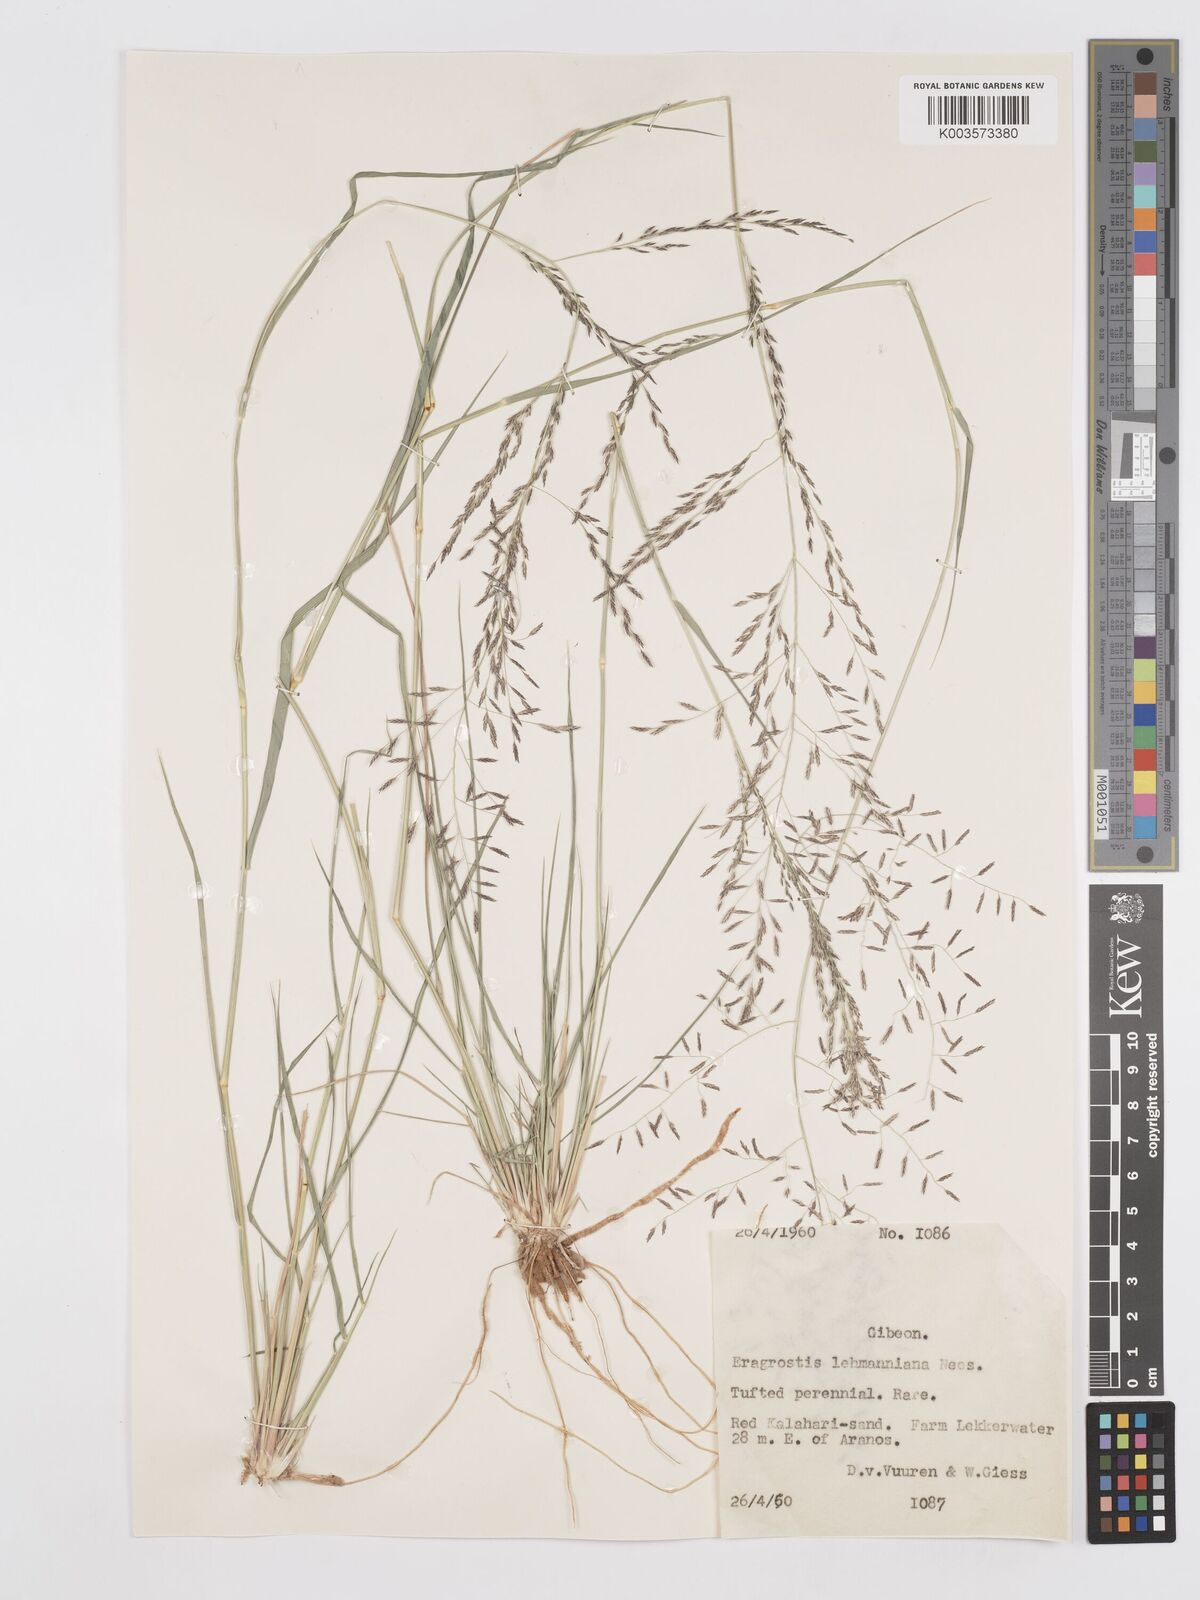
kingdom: Plantae
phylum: Tracheophyta
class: Liliopsida
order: Poales
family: Poaceae
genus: Eragrostis
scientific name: Eragrostis lehmanniana
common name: Lehmann lovegrass
